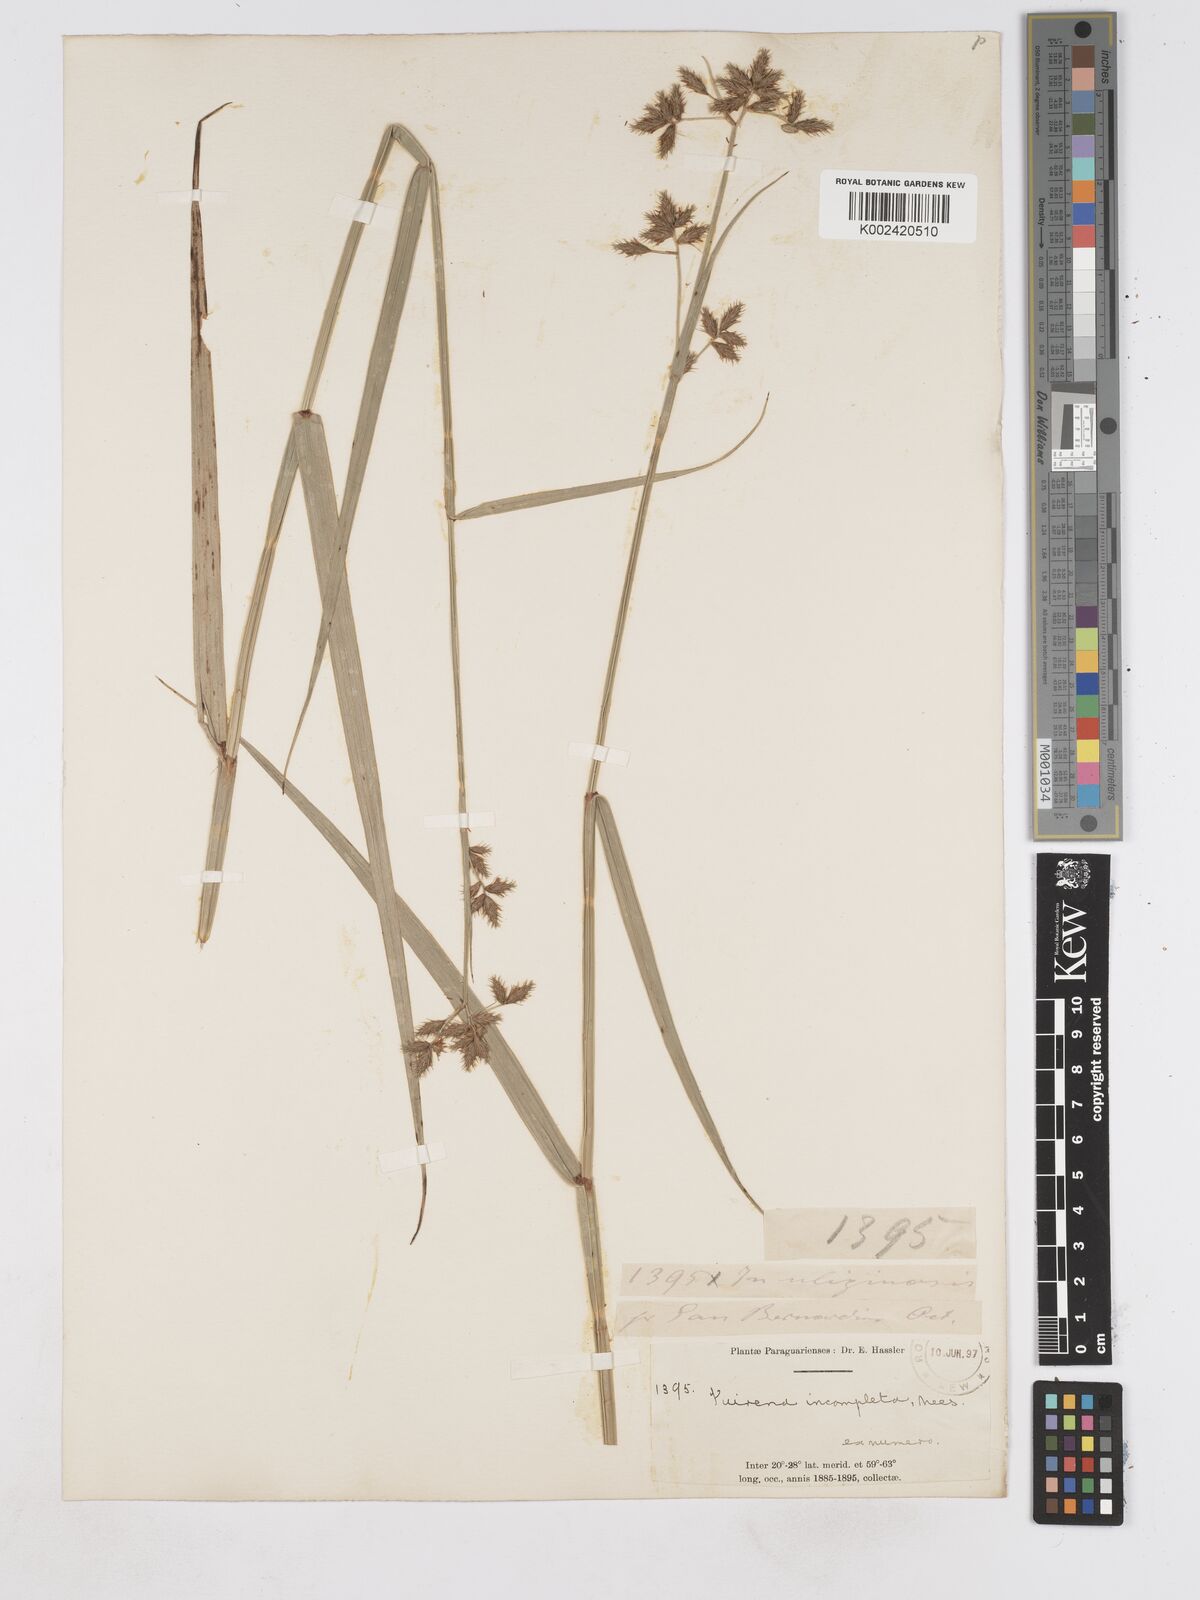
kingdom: Plantae
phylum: Tracheophyta
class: Liliopsida
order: Poales
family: Cyperaceae
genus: Fuirena
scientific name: Fuirena incompleta
